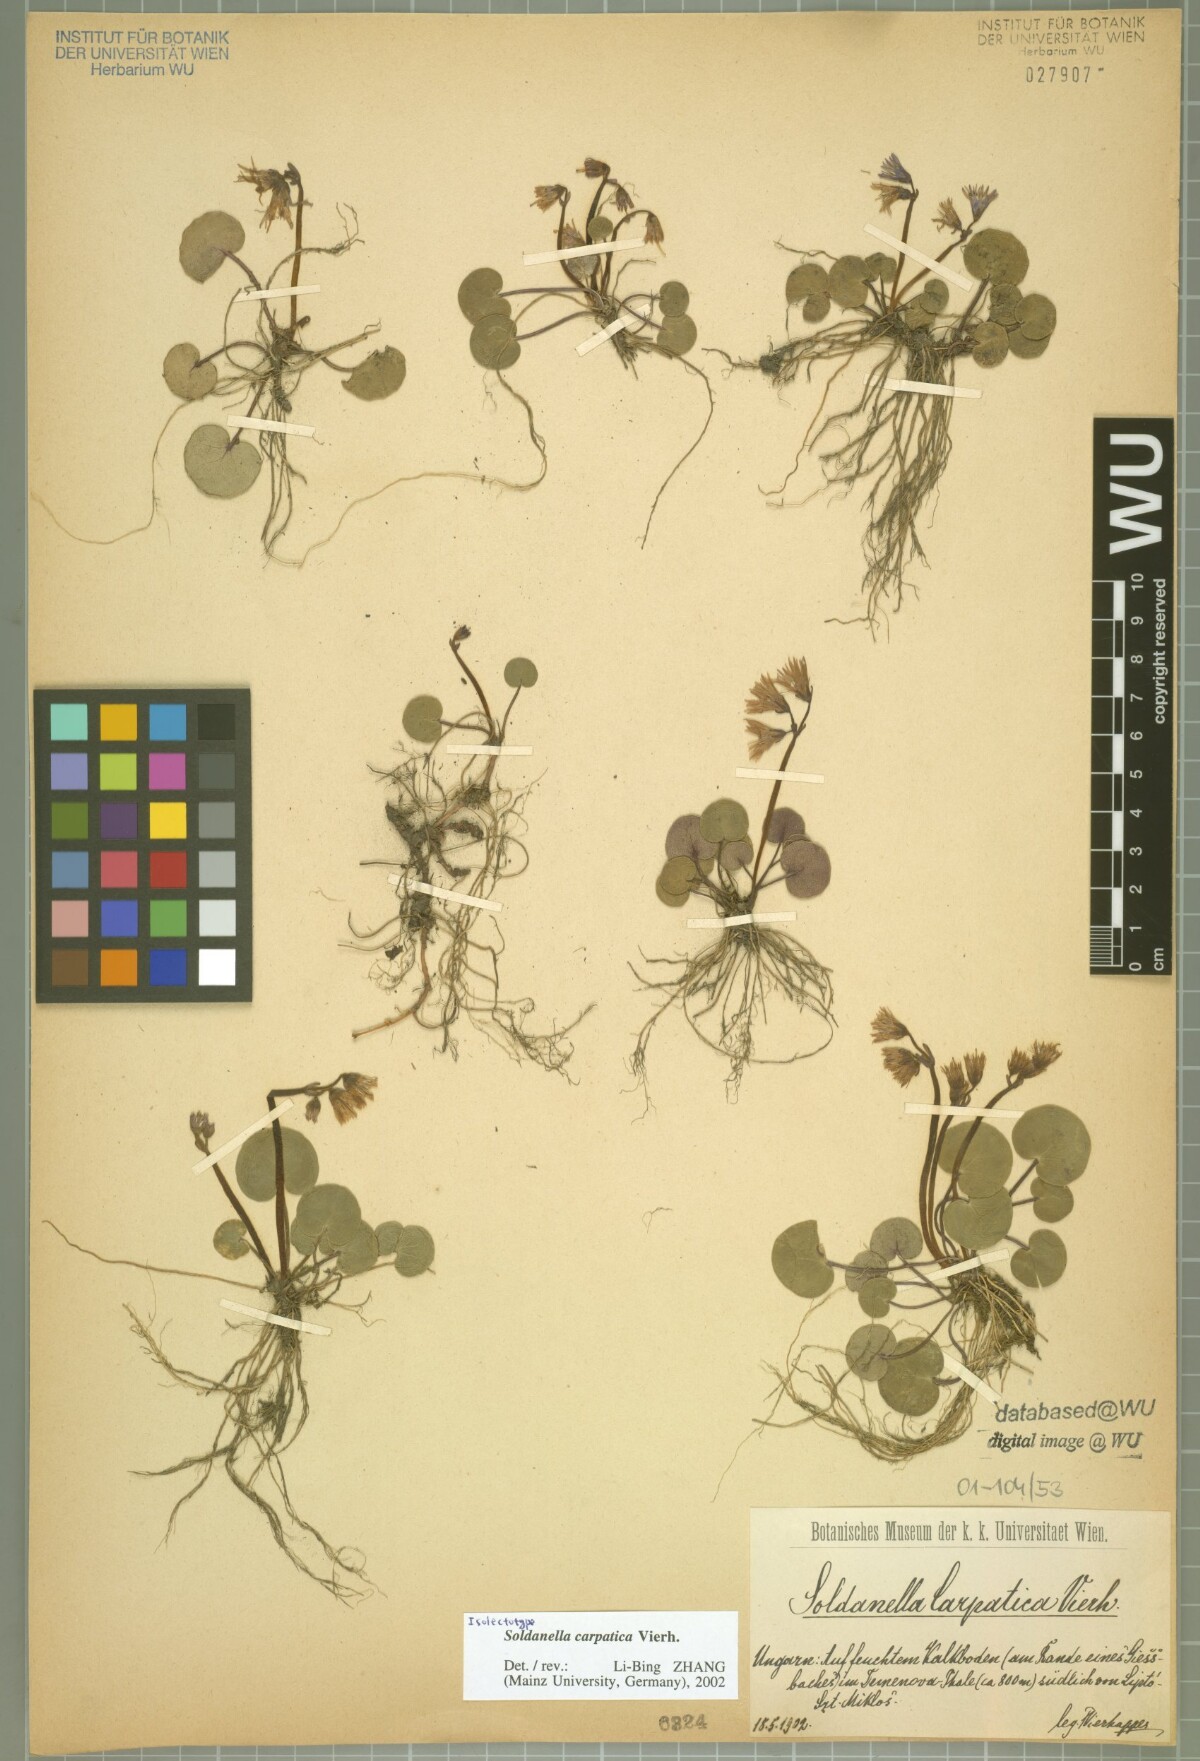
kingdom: Plantae
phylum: Tracheophyta
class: Magnoliopsida
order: Ericales
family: Primulaceae
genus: Soldanella
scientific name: Soldanella carpatica
